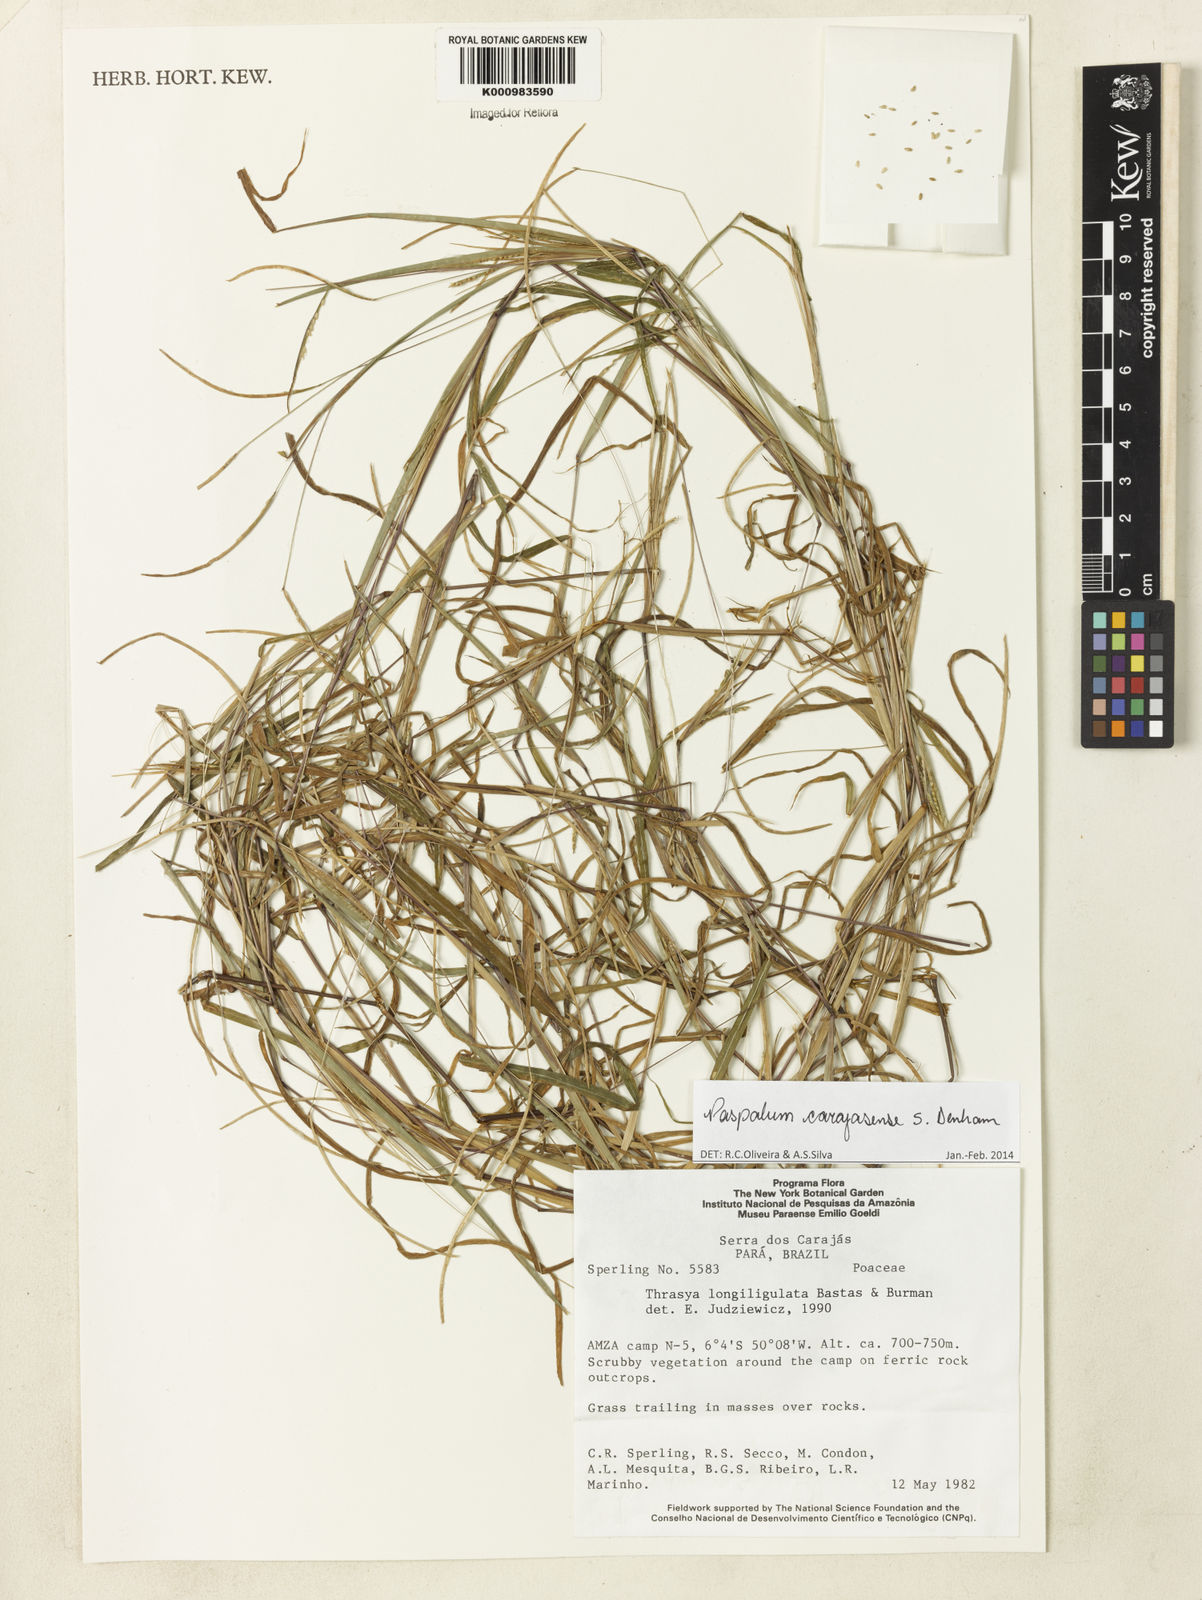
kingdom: Plantae
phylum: Tracheophyta
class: Liliopsida
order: Poales
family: Poaceae
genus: Paspalum
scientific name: Paspalum carajasense
